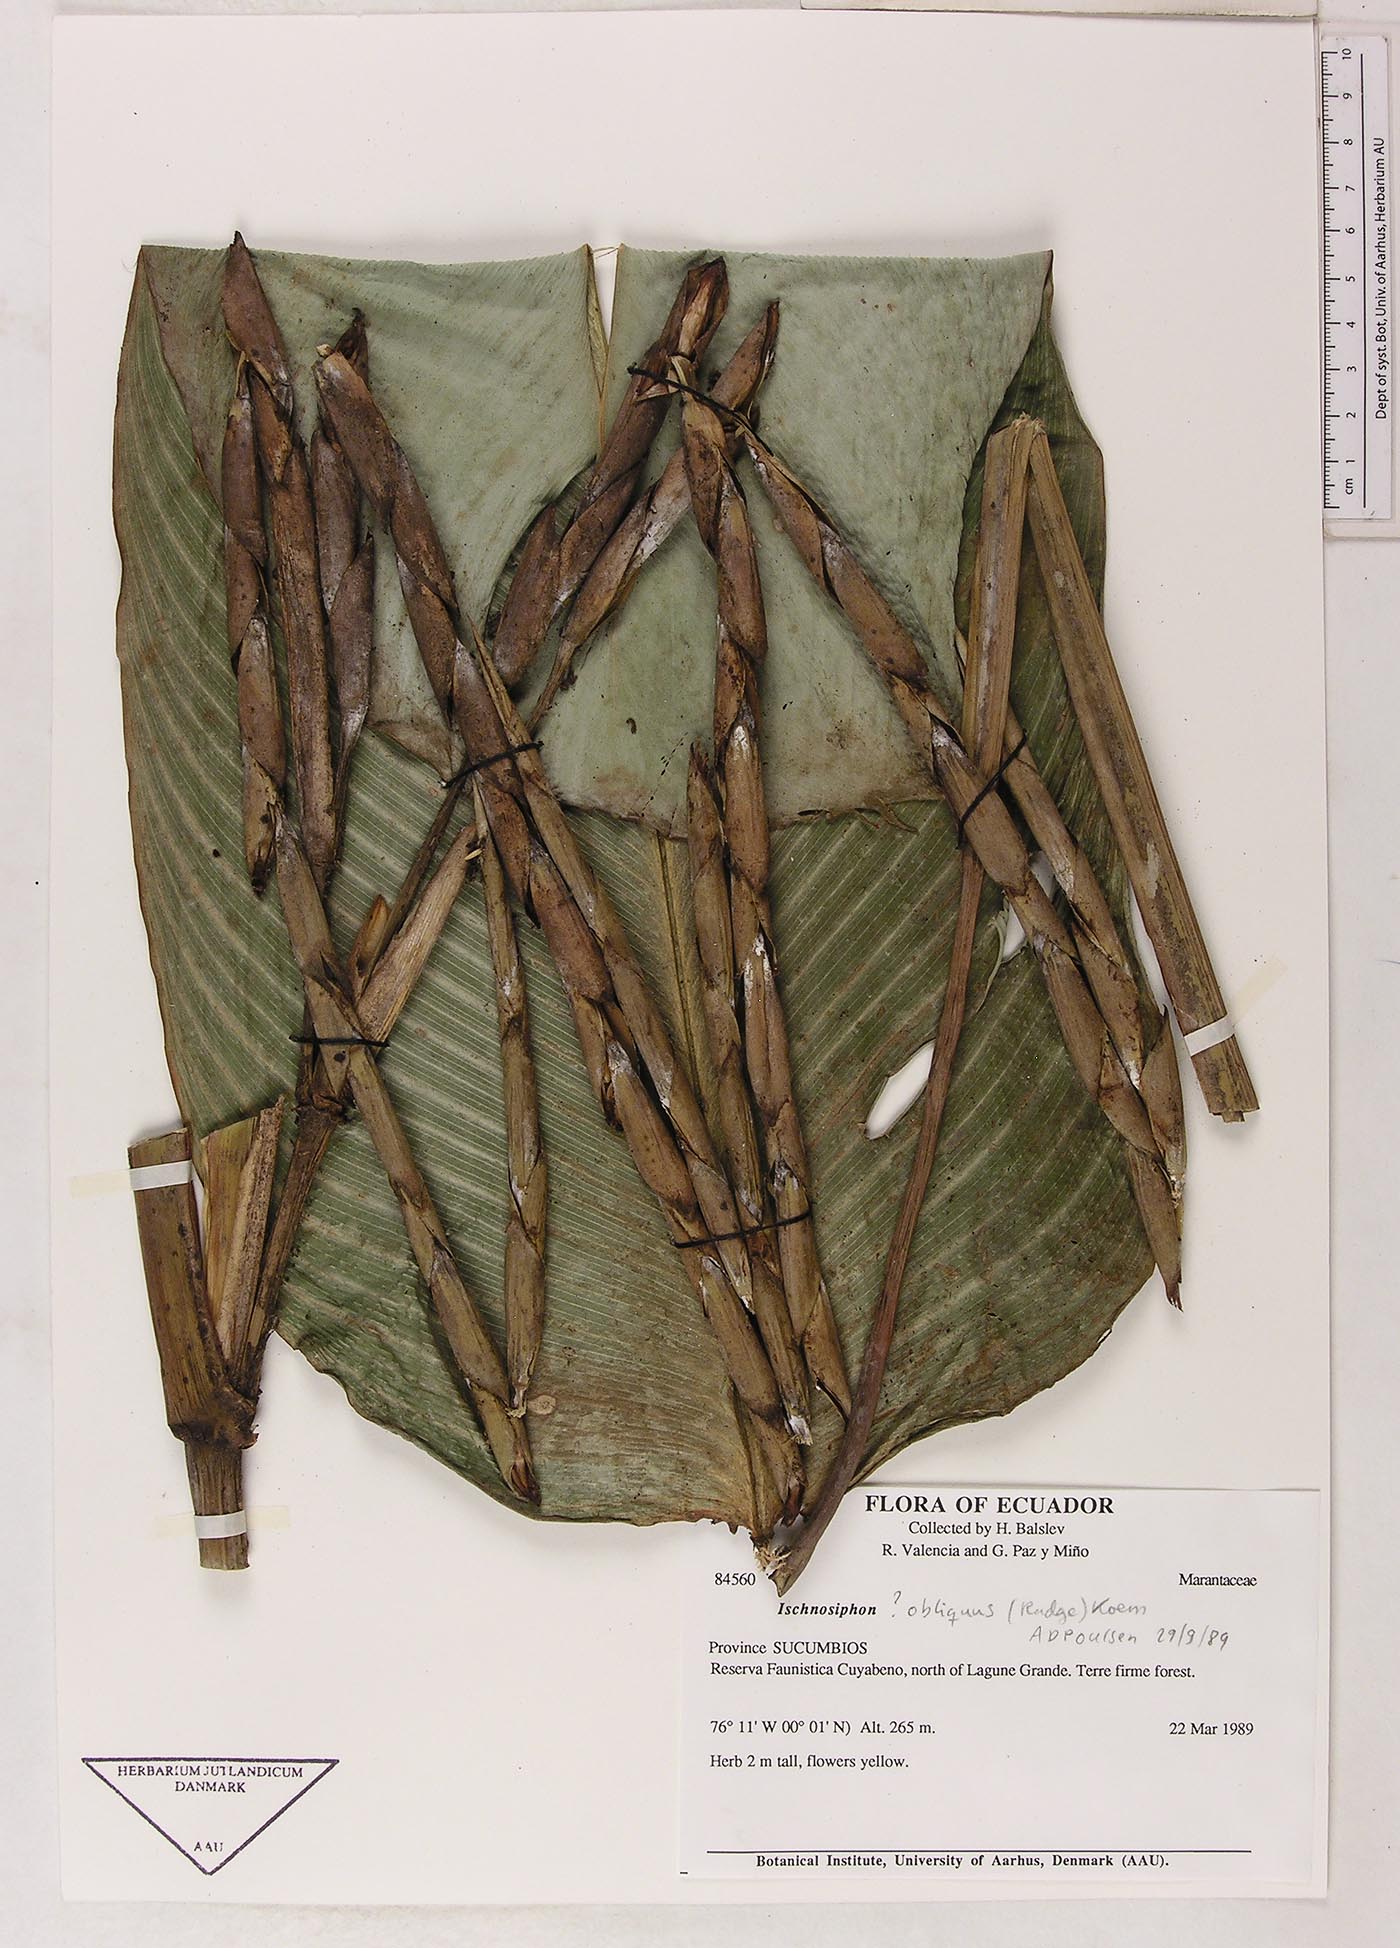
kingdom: Plantae
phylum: Tracheophyta
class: Liliopsida
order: Zingiberales
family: Marantaceae
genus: Ischnosiphon
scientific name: Ischnosiphon obliquus
